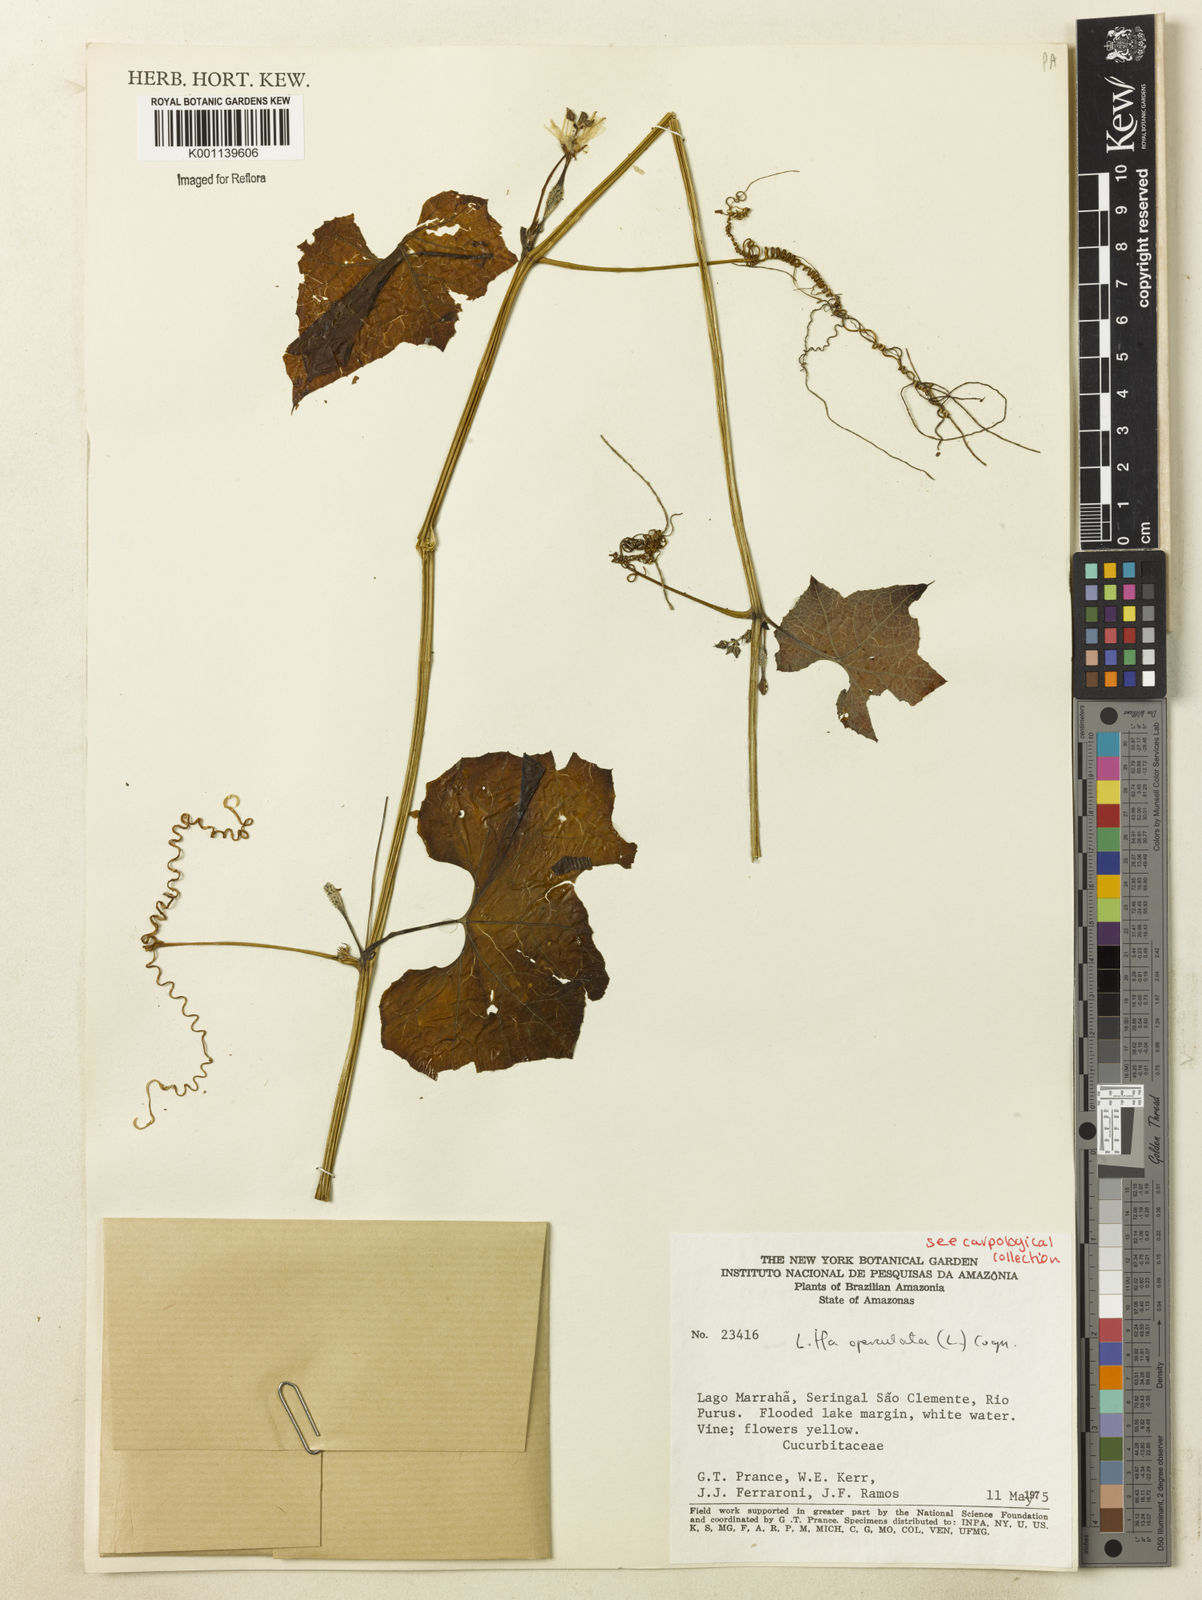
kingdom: Plantae
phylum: Tracheophyta
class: Magnoliopsida
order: Cucurbitales
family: Cucurbitaceae
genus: Luffa
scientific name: Luffa operculata
